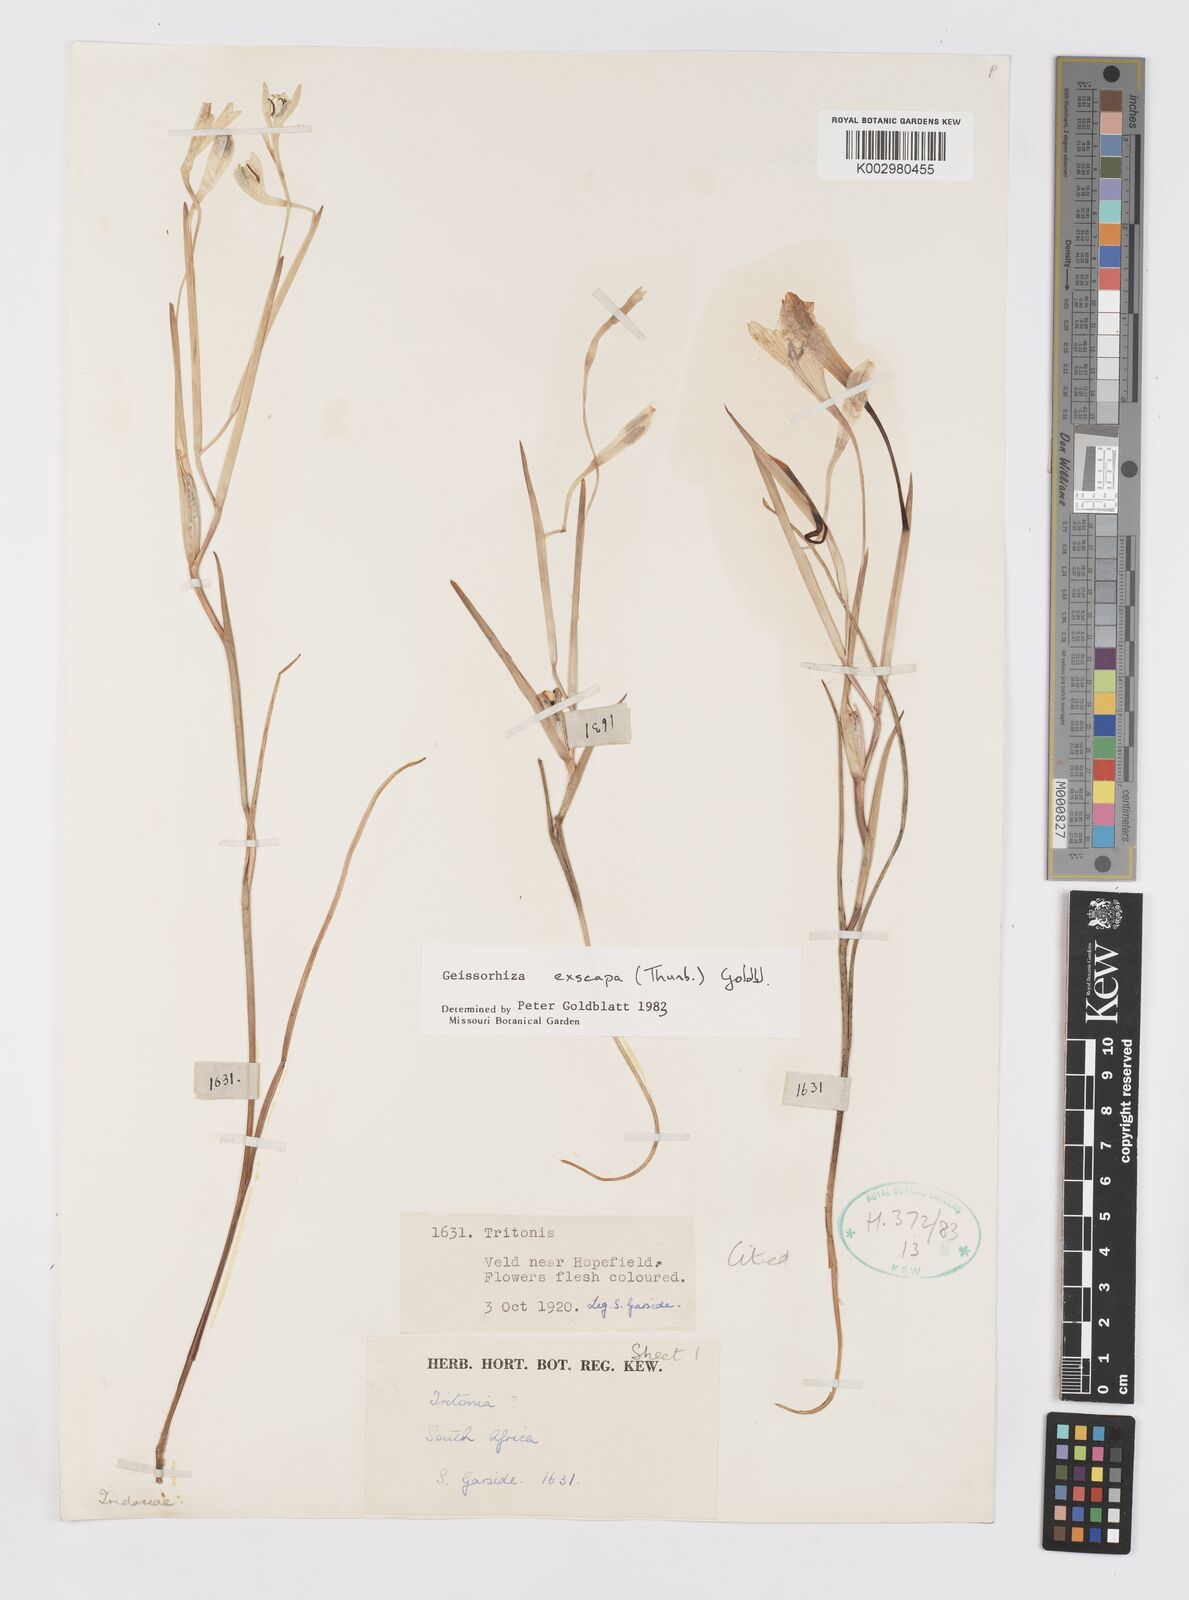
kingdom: Plantae
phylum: Tracheophyta
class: Liliopsida
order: Asparagales
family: Iridaceae
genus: Geissorhiza
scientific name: Geissorhiza exscapa
